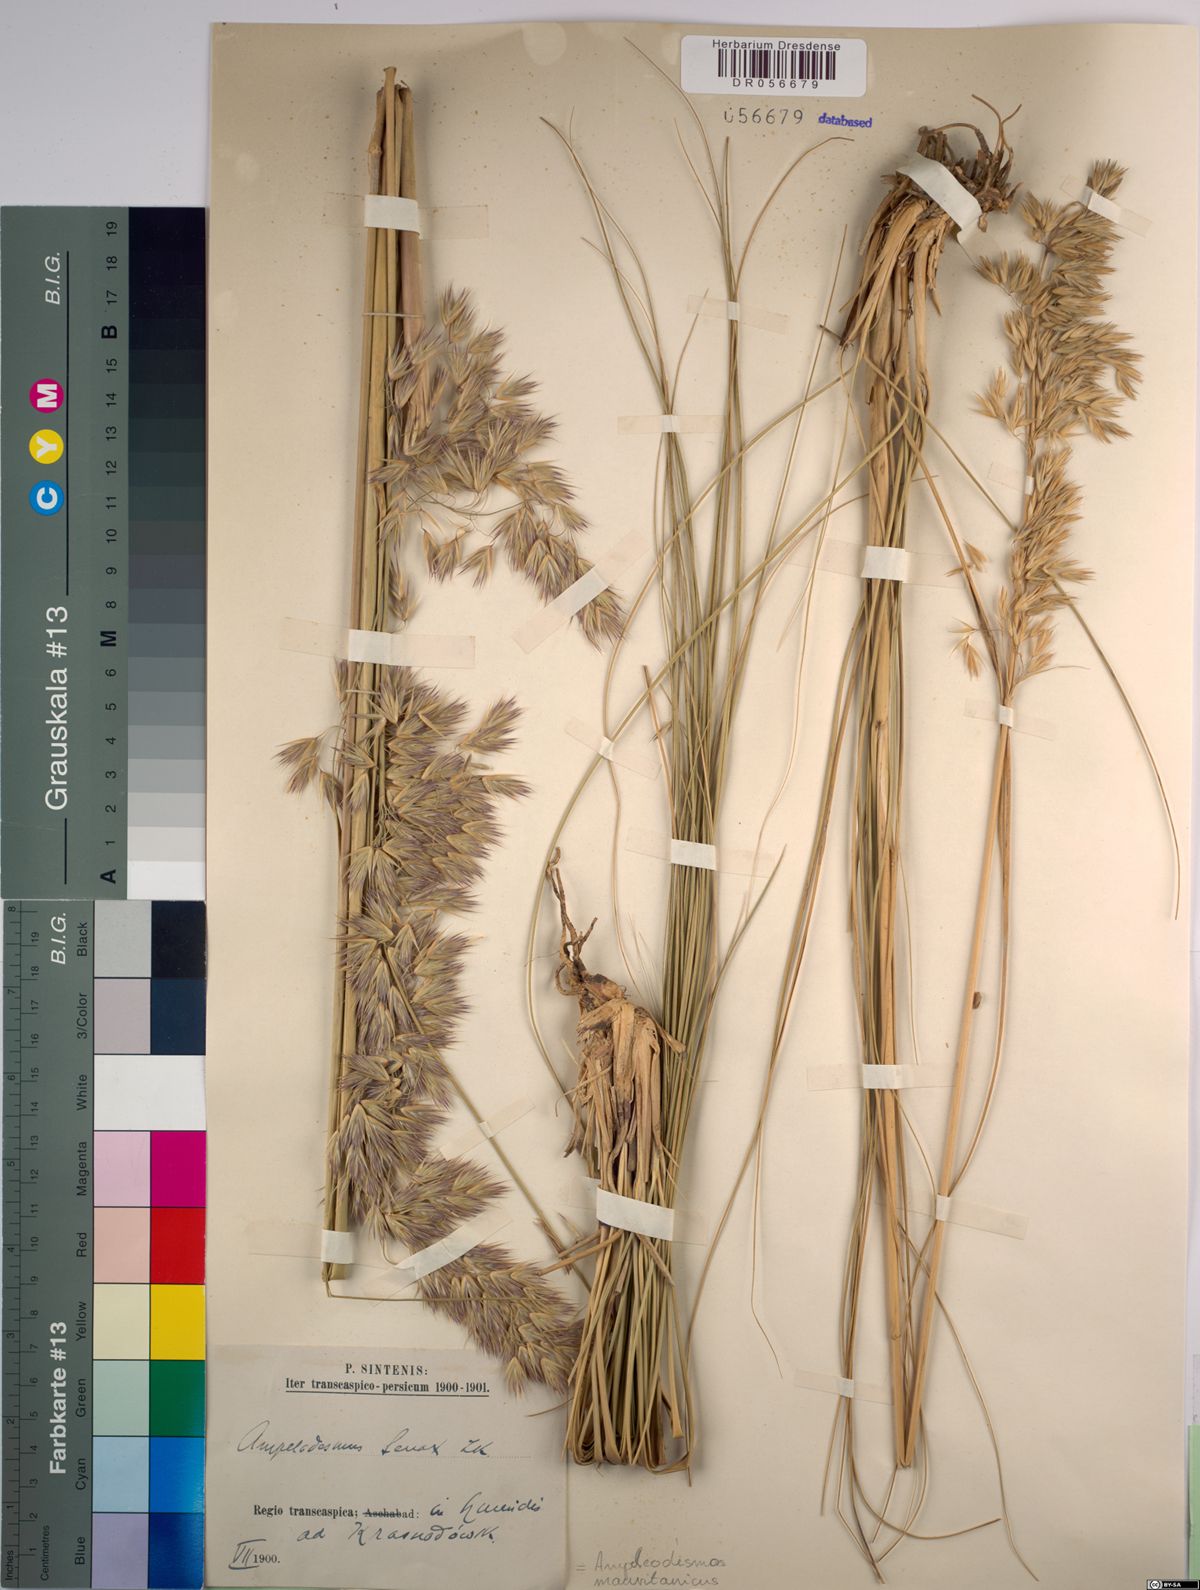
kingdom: Plantae
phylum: Tracheophyta
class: Liliopsida
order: Poales
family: Poaceae
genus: Ampelodesmos
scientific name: Ampelodesmos mauritanicus
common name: Mauritanian grass
